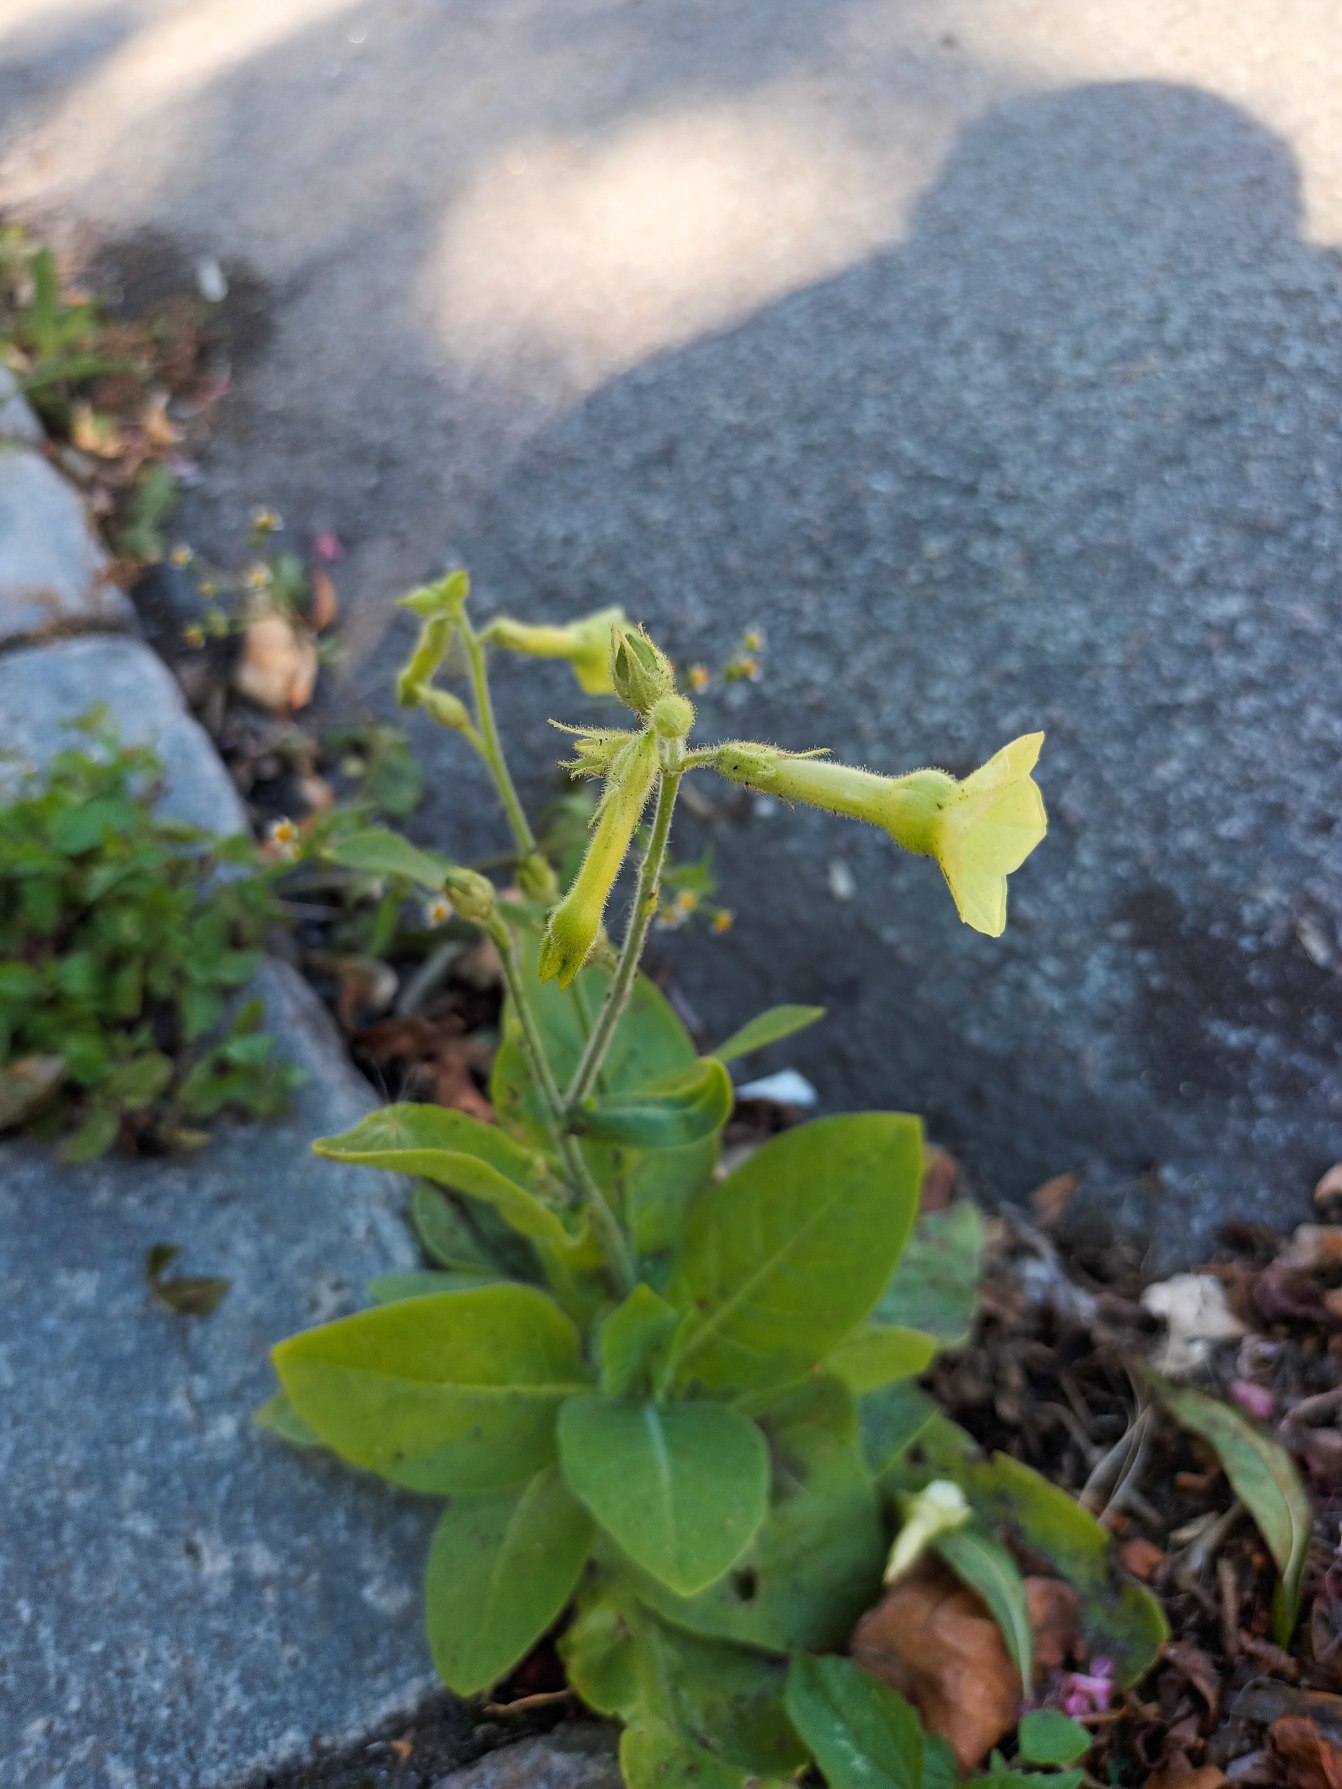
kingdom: Plantae
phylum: Tracheophyta
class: Magnoliopsida
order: Solanales
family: Solanaceae
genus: Nicotiana
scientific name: Nicotiana langsdorffii
